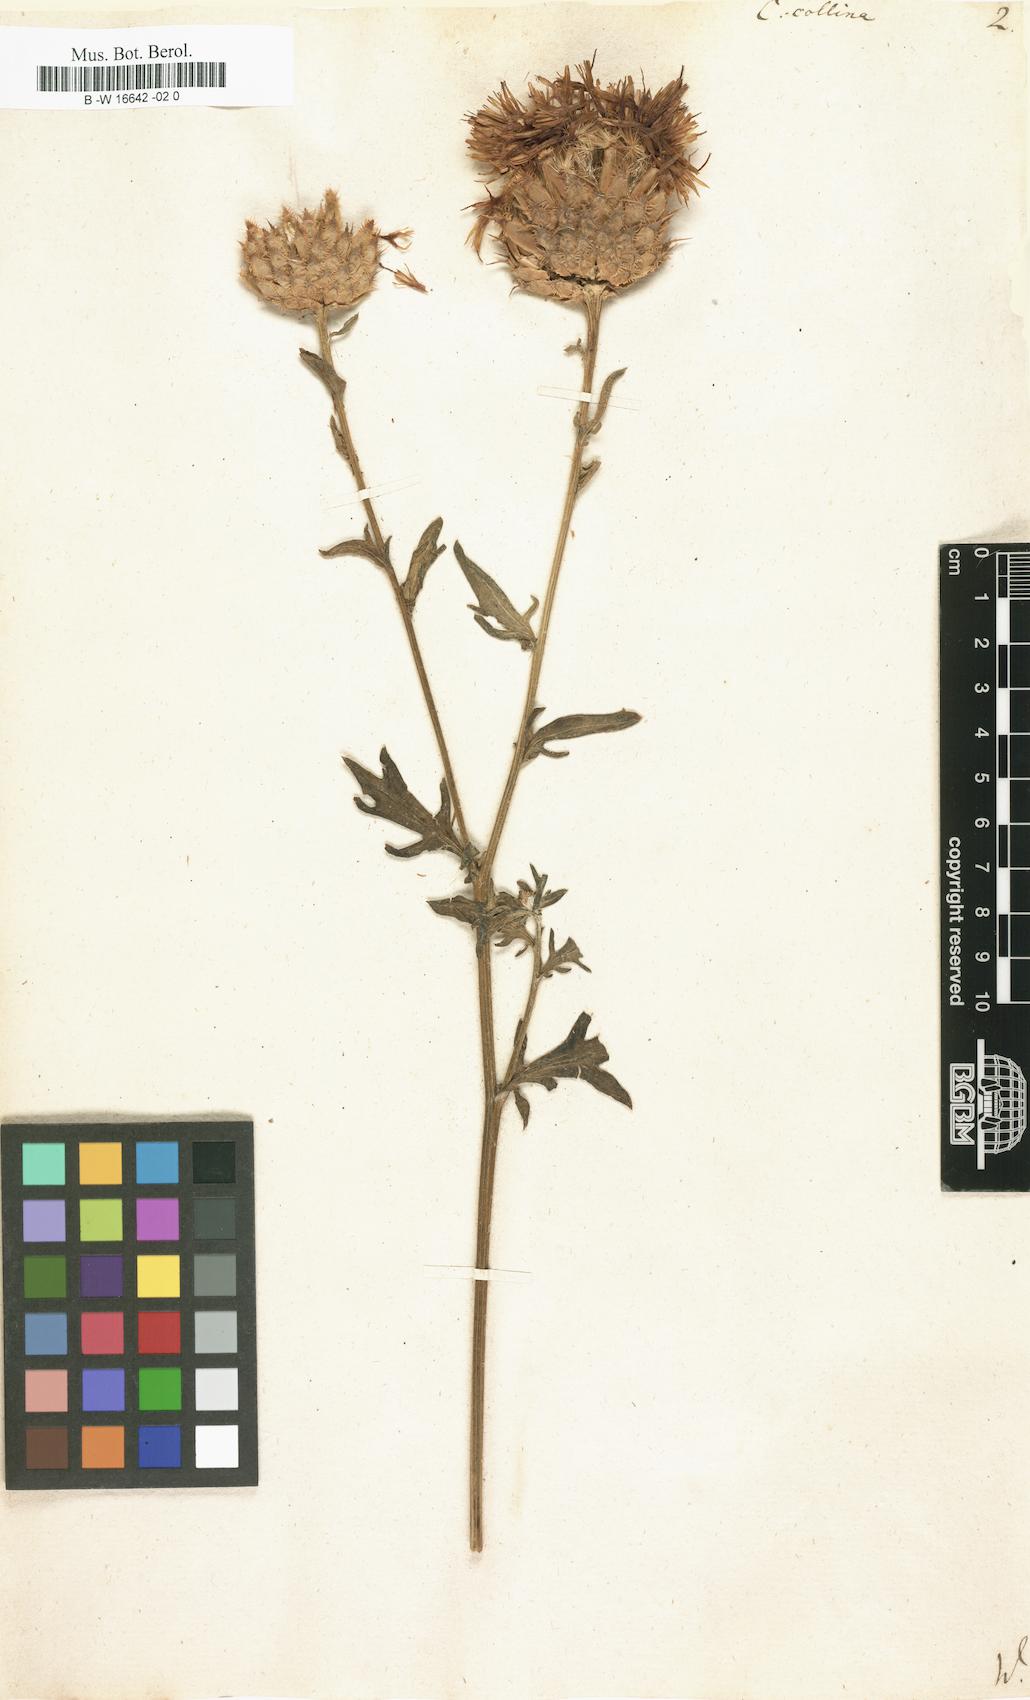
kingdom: Plantae
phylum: Tracheophyta
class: Magnoliopsida
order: Asterales
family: Asteraceae
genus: Centaurea
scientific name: Centaurea collina
